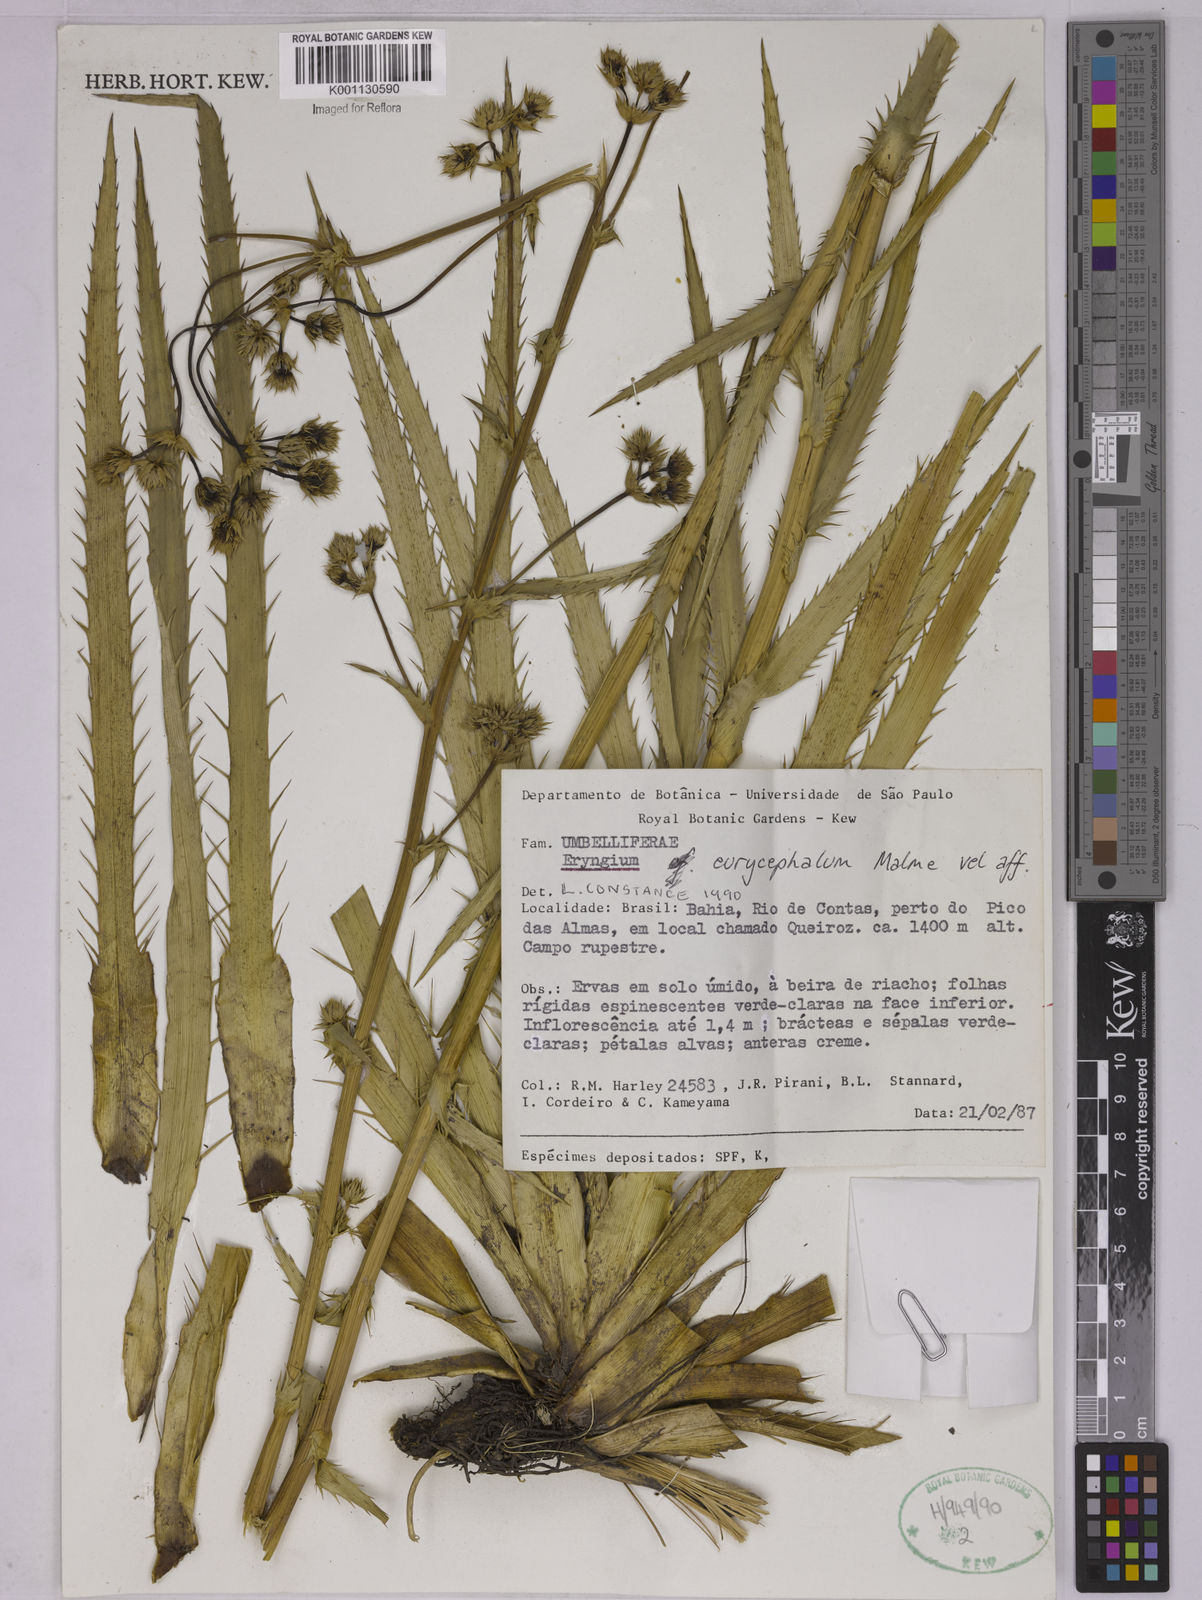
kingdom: Plantae
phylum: Tracheophyta
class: Magnoliopsida
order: Apiales
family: Apiaceae
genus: Eryngium
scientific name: Eryngium eurycephalum
